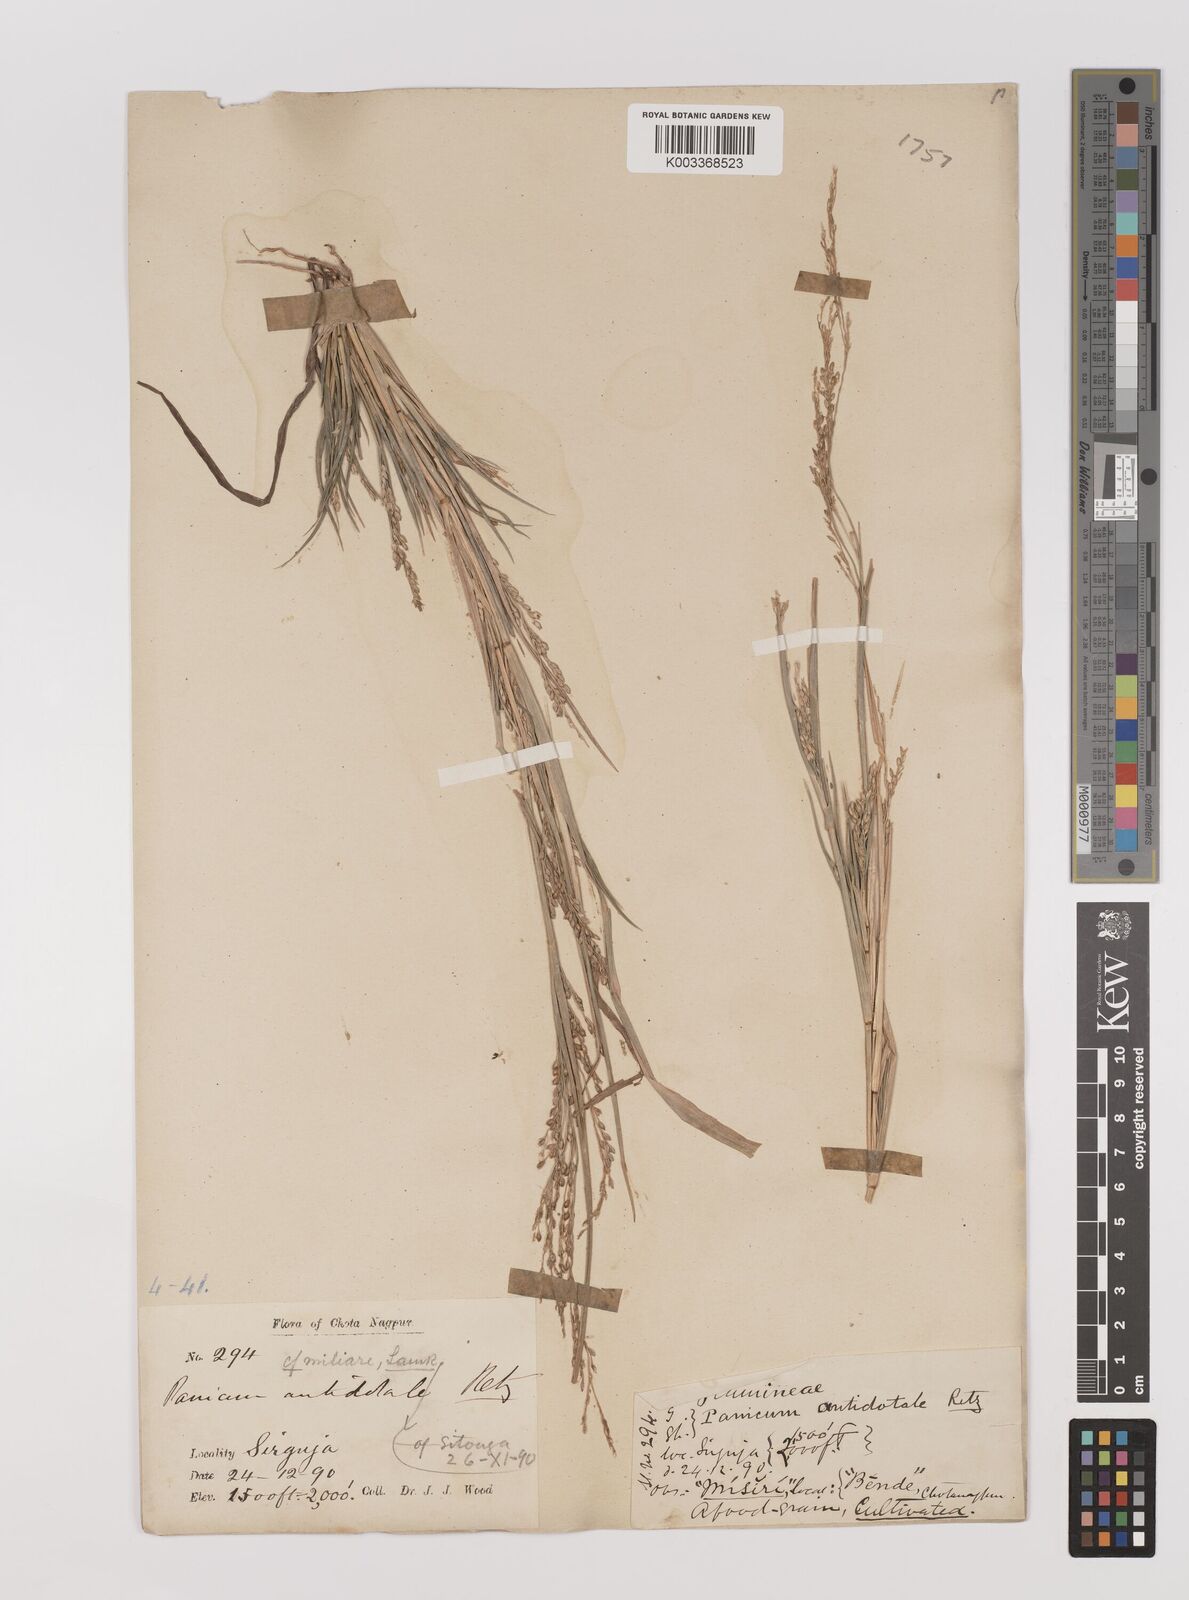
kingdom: Plantae
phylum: Tracheophyta
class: Liliopsida
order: Poales
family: Poaceae
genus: Panicum
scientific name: Panicum sumatrense
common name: Little millet
